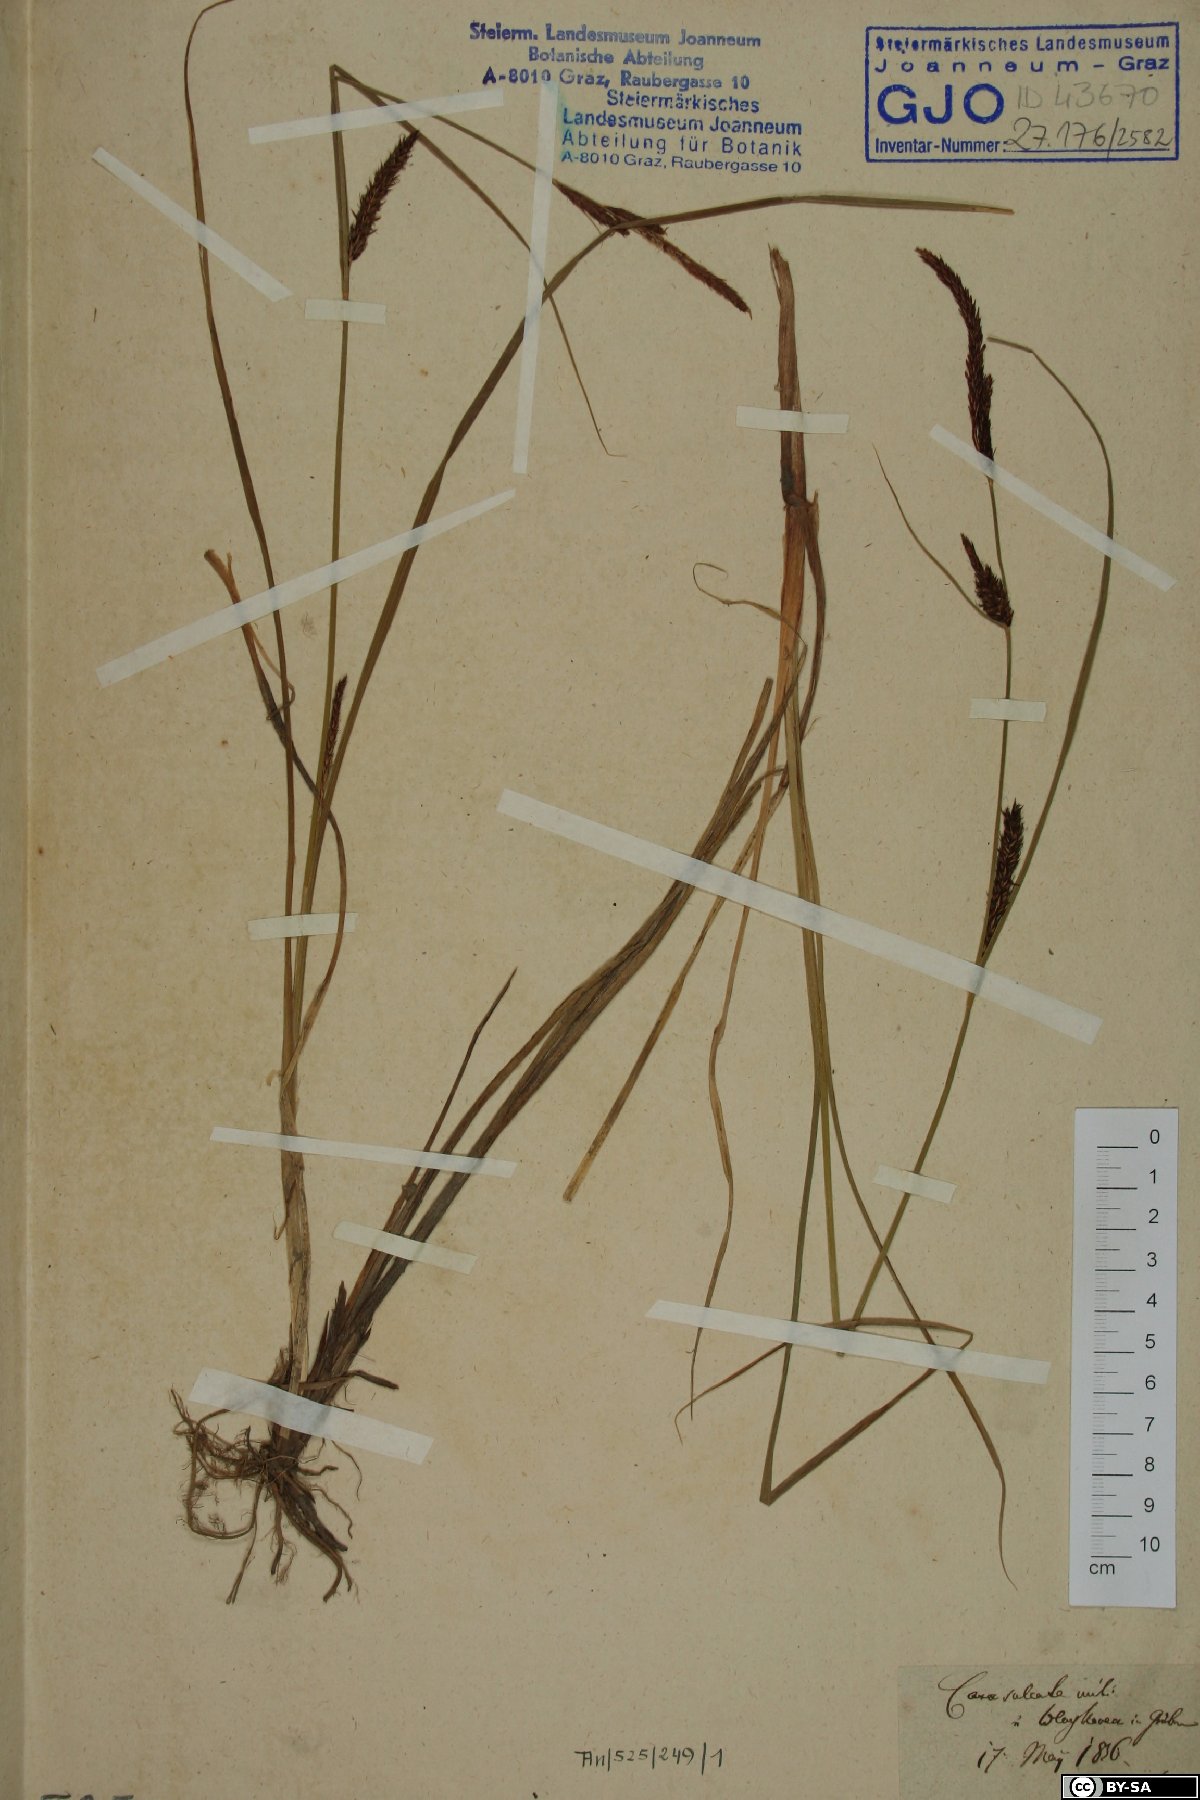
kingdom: Plantae
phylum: Tracheophyta
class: Liliopsida
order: Poales
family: Cyperaceae
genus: Carex
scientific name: Carex melanostachya
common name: Black-spiked sedge
